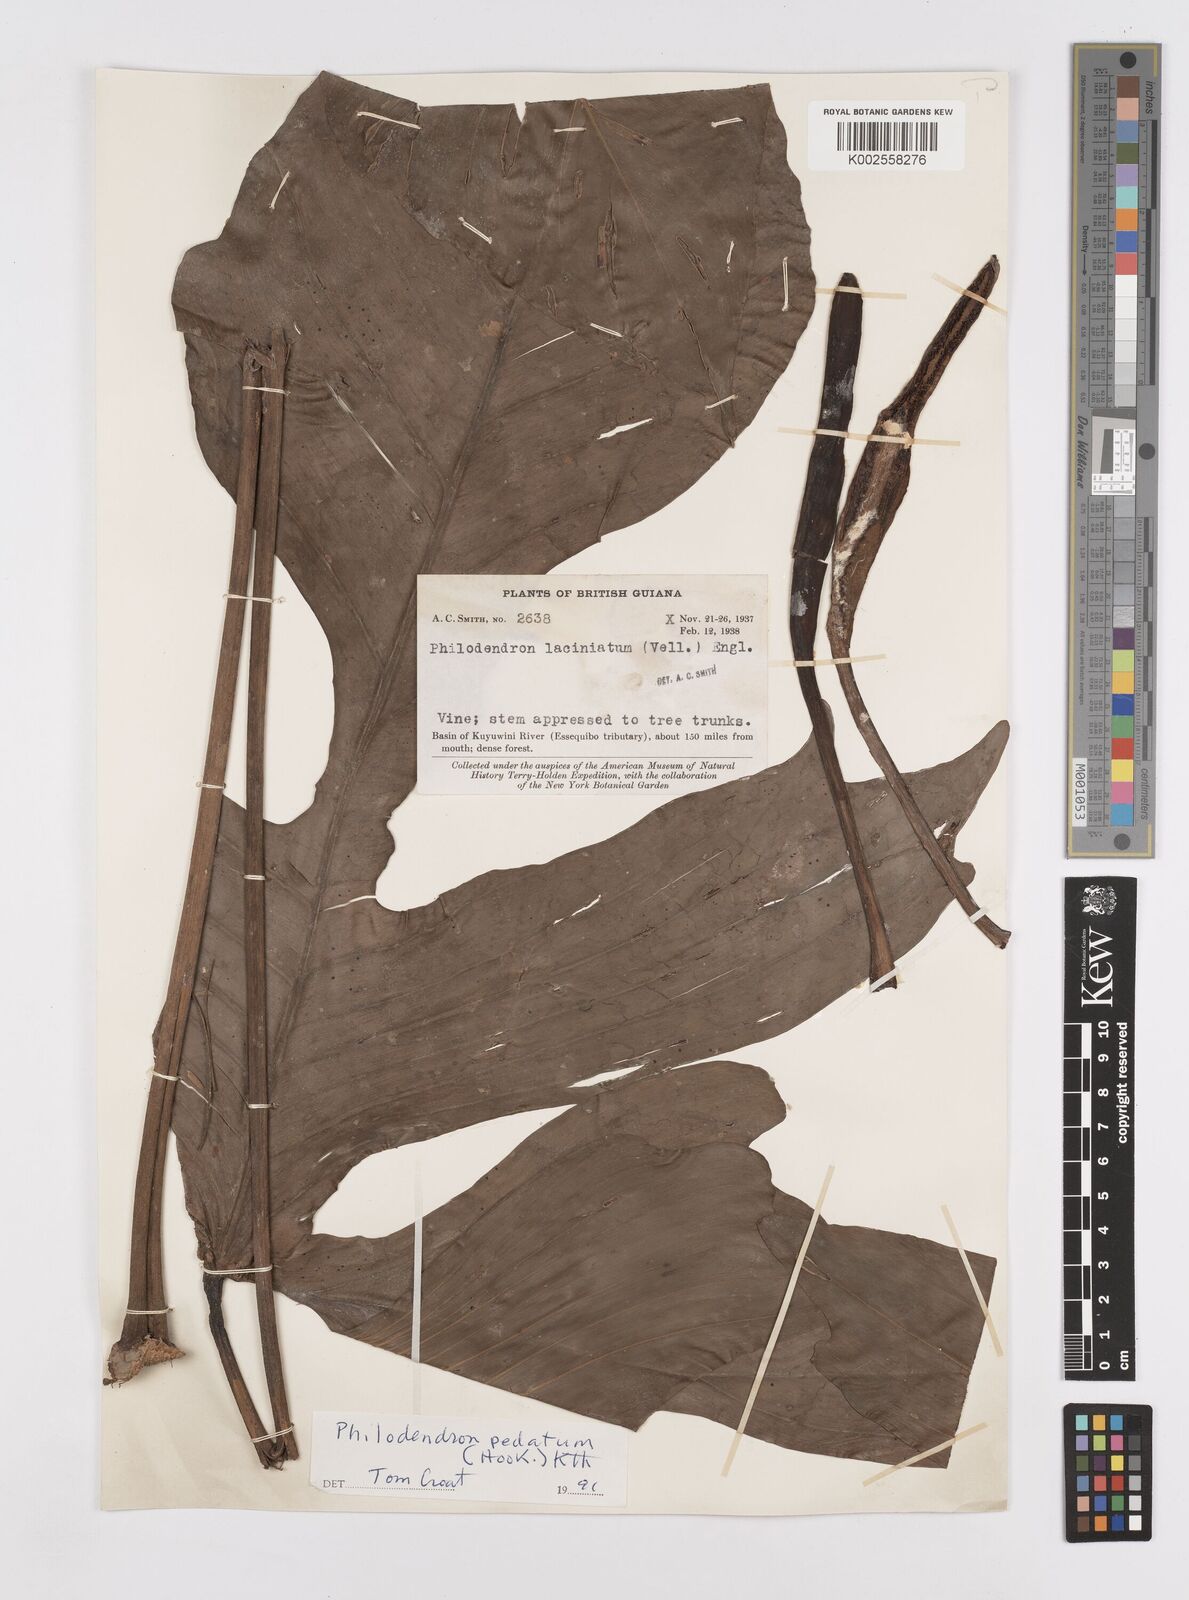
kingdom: Plantae
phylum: Tracheophyta
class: Liliopsida
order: Alismatales
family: Araceae
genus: Philodendron
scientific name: Philodendron pedatum
